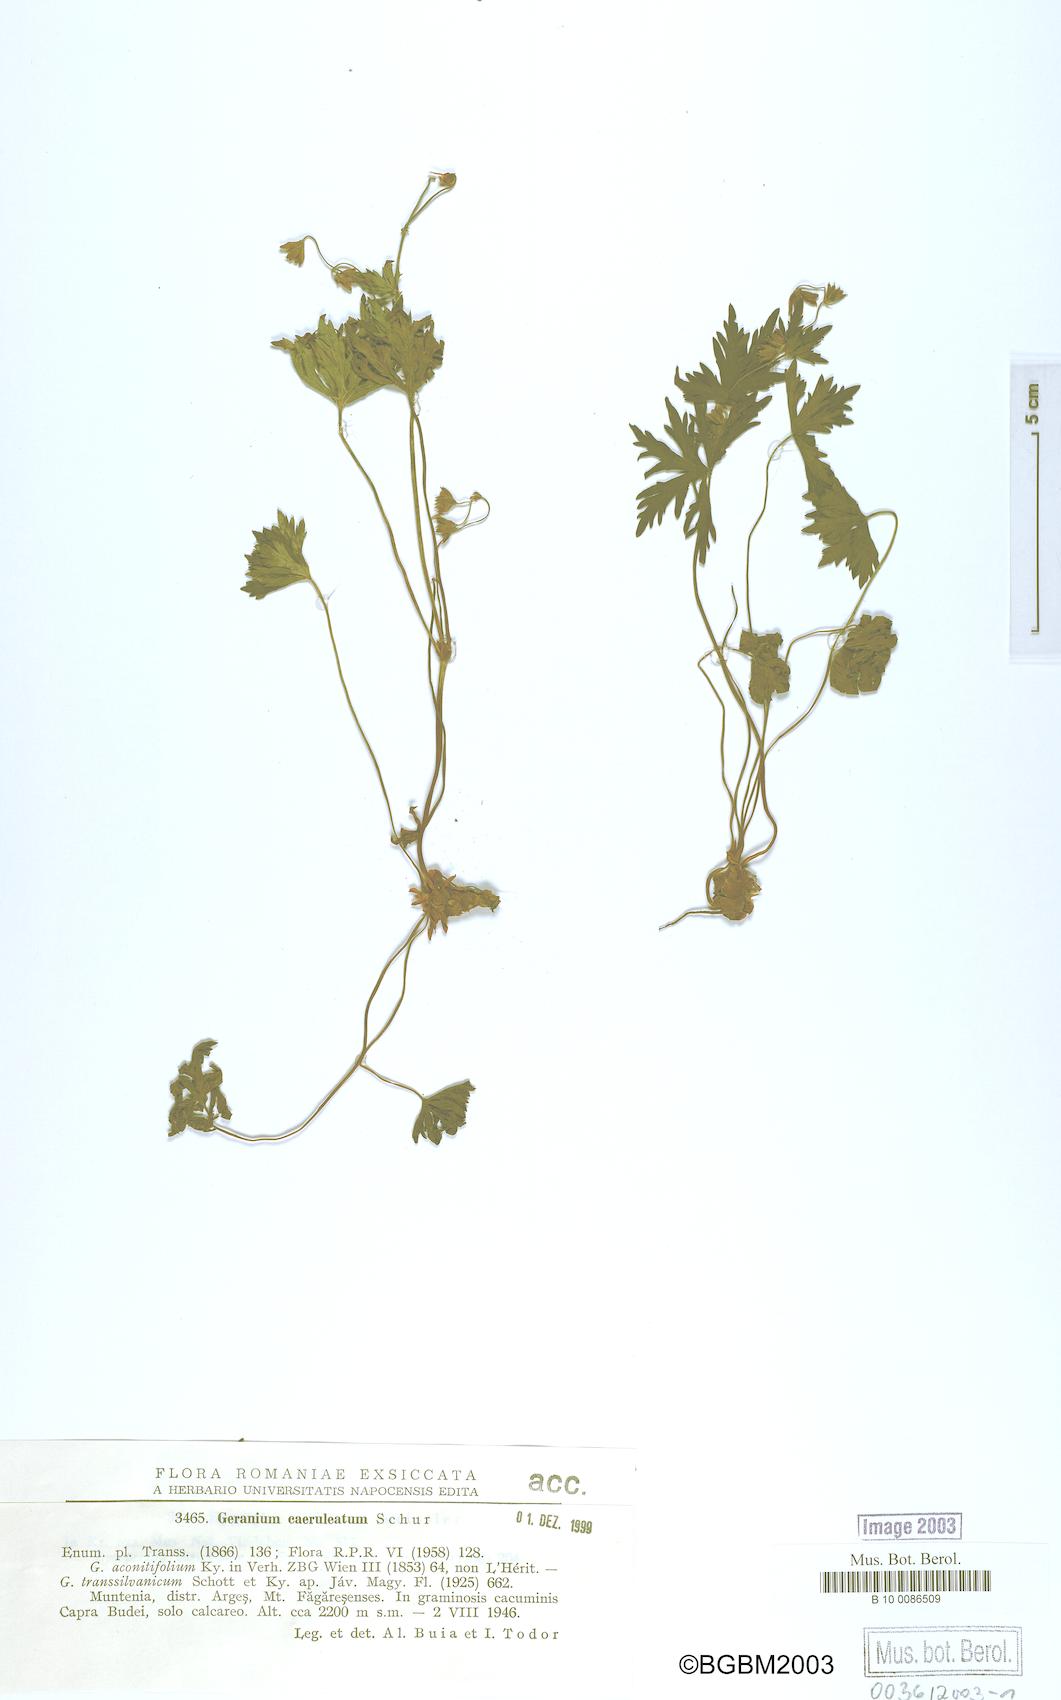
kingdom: Plantae
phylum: Tracheophyta
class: Magnoliopsida
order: Geraniales
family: Geraniaceae
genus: Geranium
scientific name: Geranium caeruleatum
